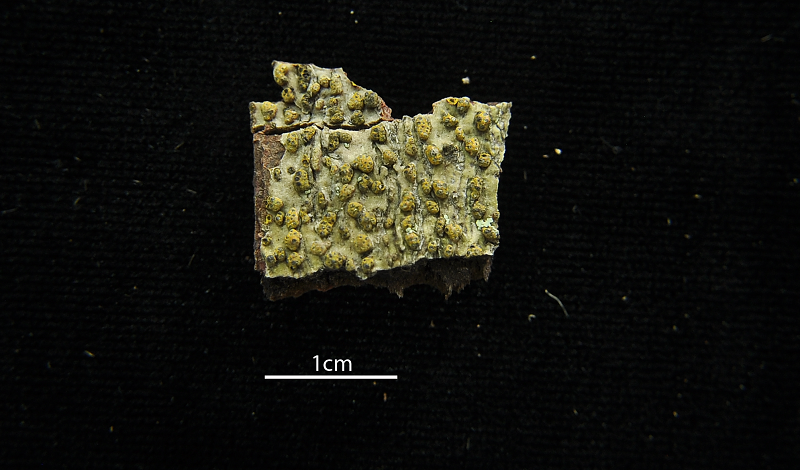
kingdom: Fungi
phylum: Ascomycota
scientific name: Ascomycota
